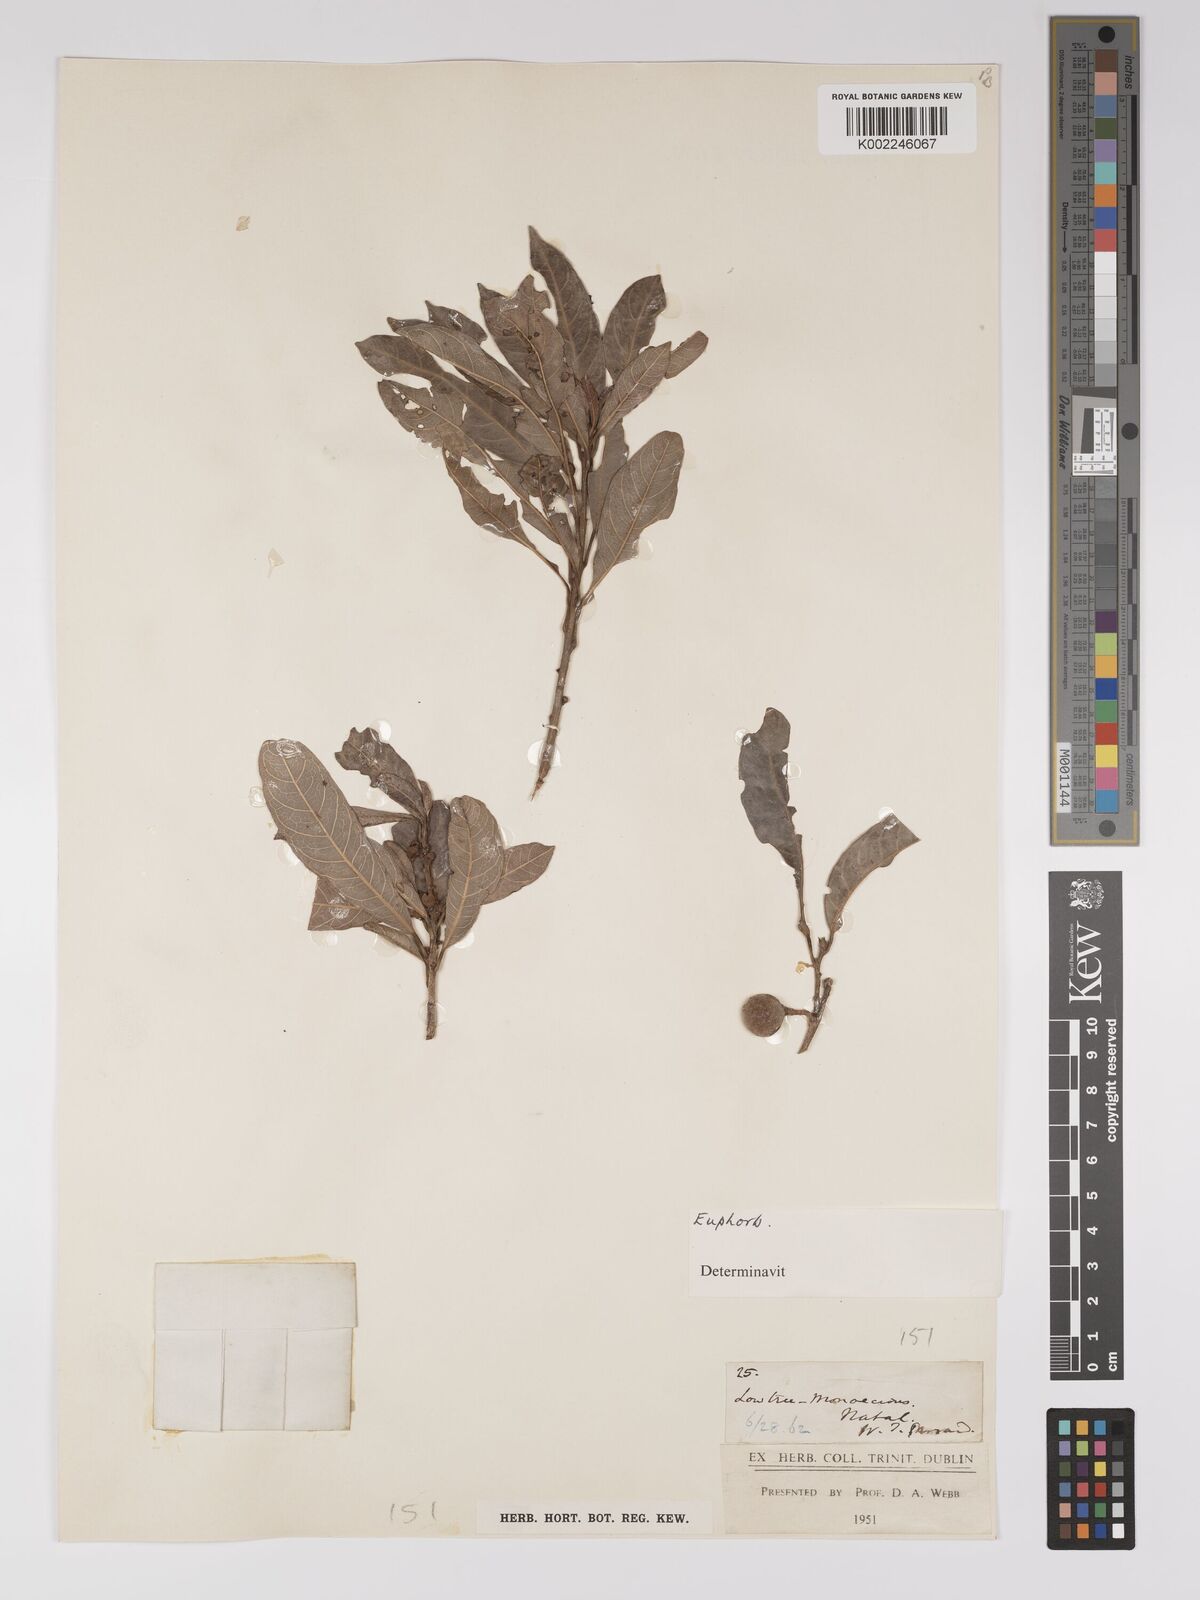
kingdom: Plantae
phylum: Tracheophyta
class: Magnoliopsida
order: Malpighiales
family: Euphorbiaceae
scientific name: Euphorbiaceae
